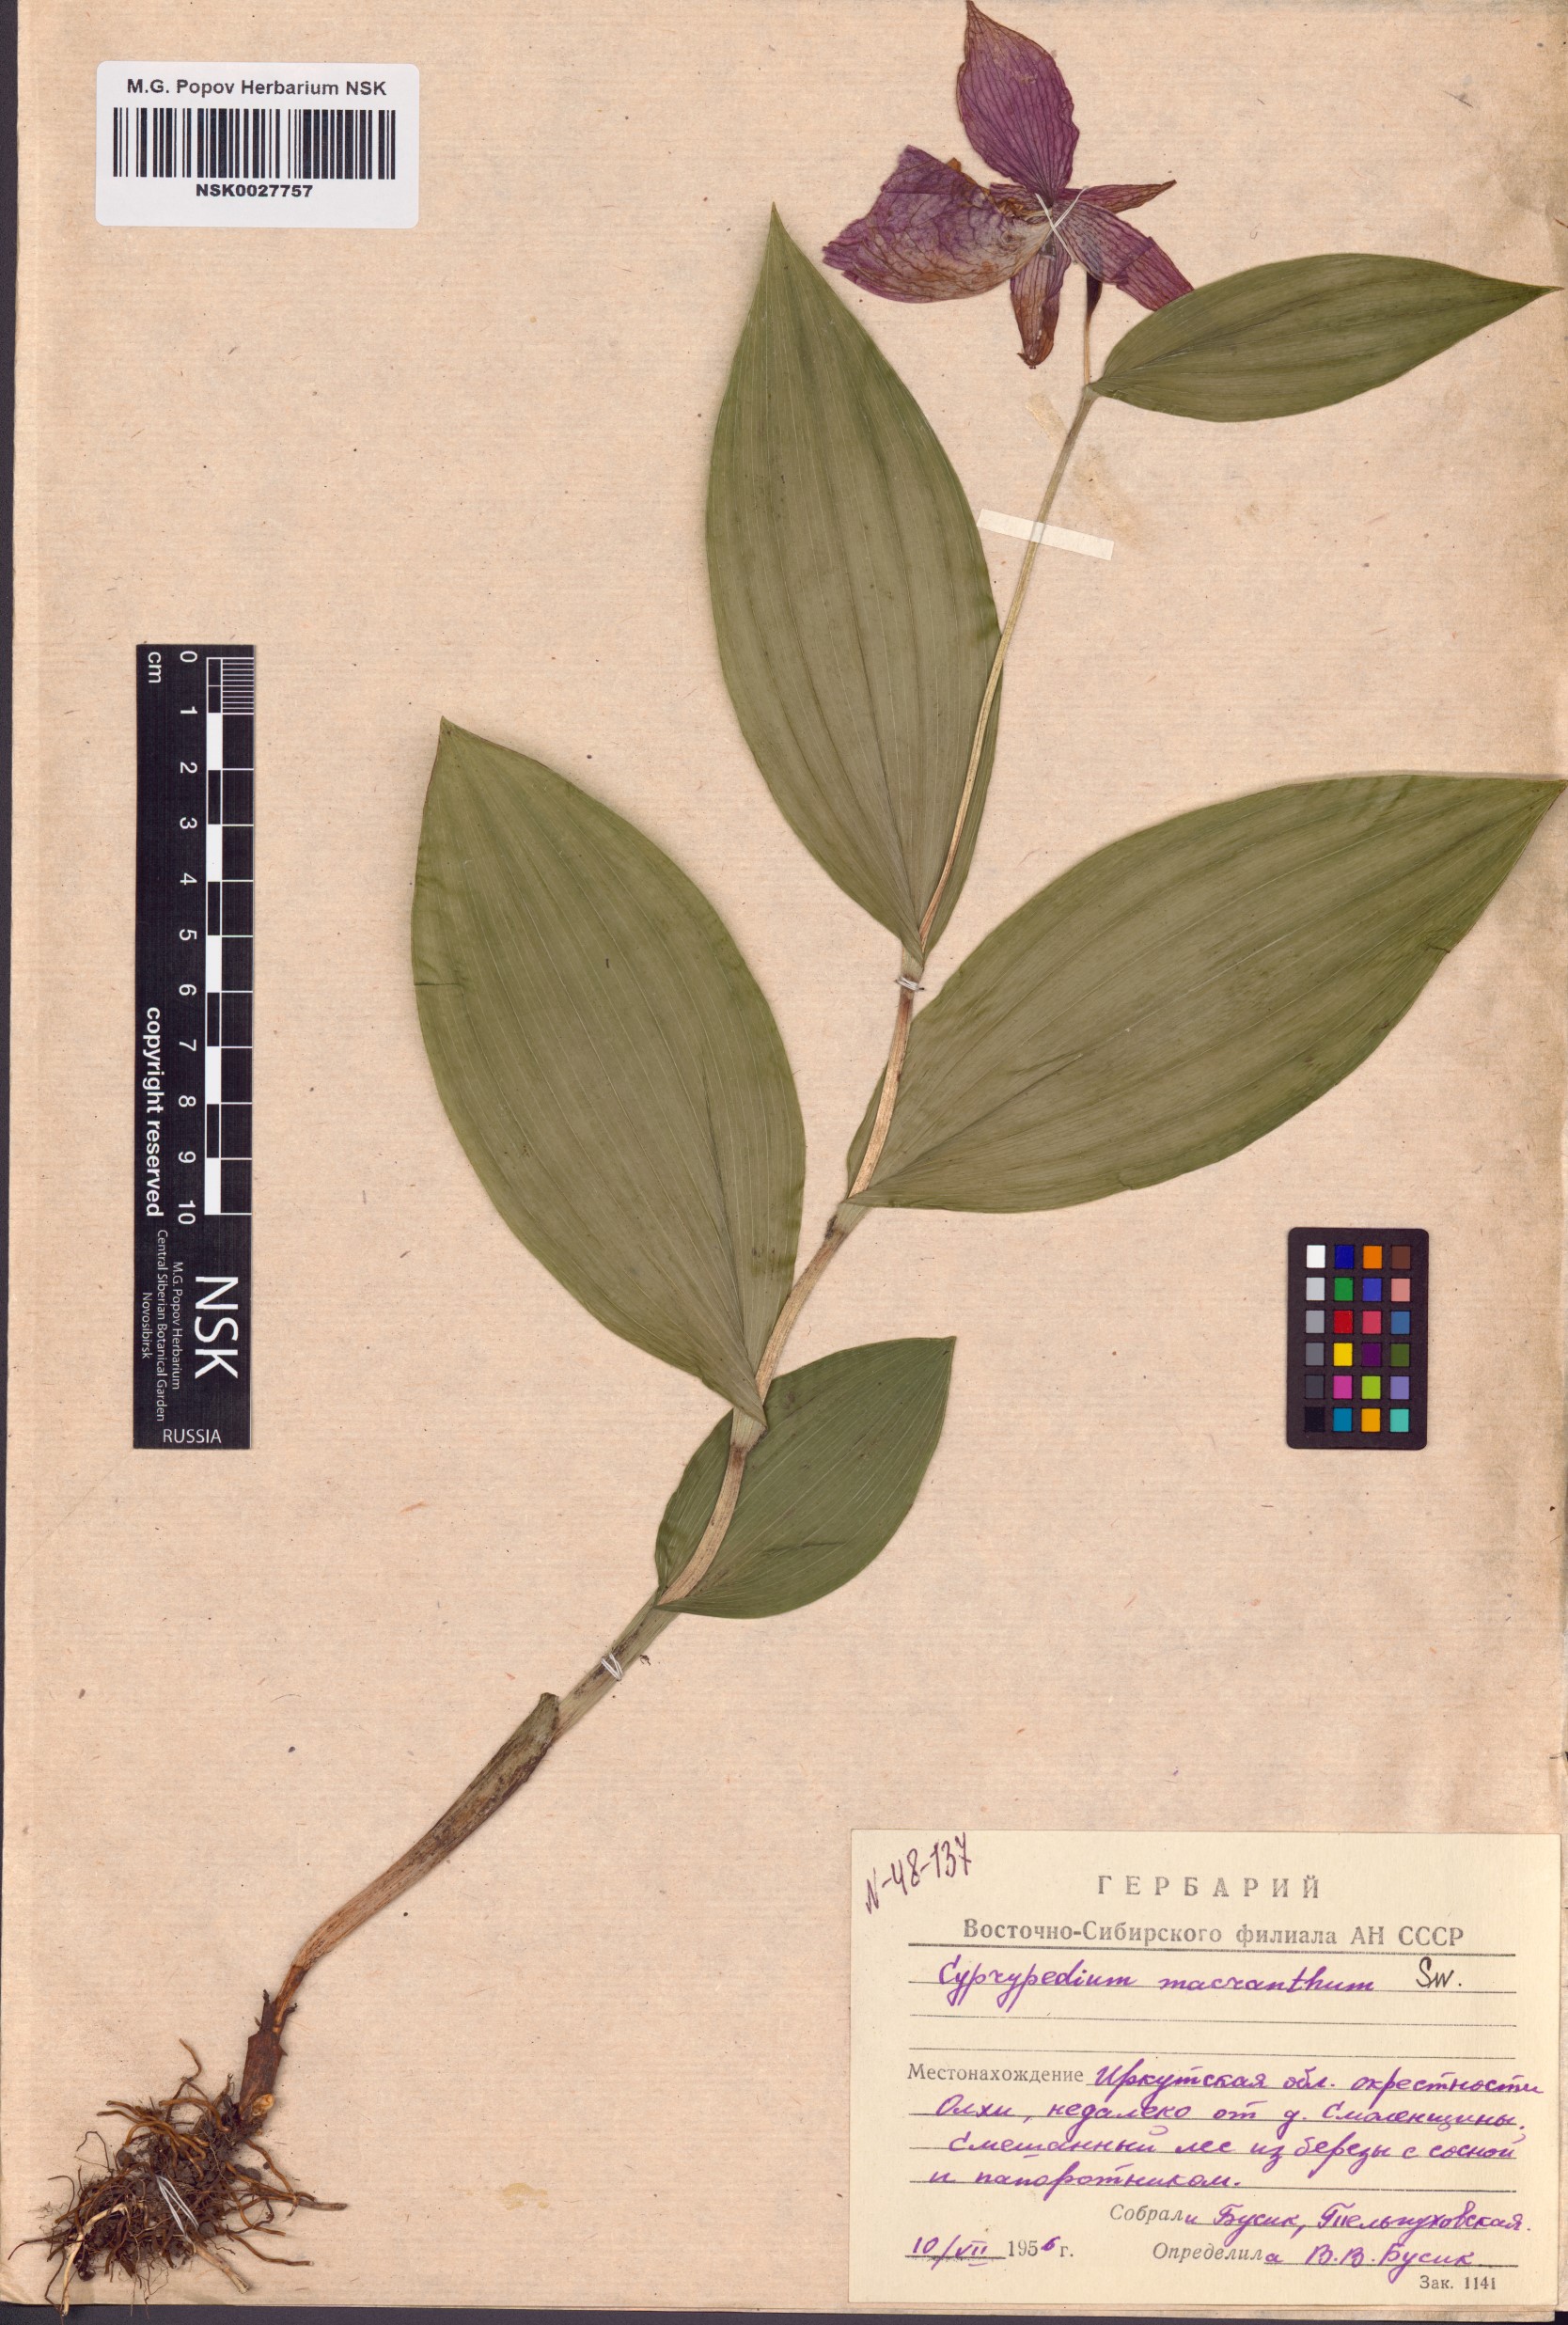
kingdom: Plantae
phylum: Tracheophyta
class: Liliopsida
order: Asparagales
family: Orchidaceae
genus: Cypripedium
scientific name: Cypripedium macranthos
